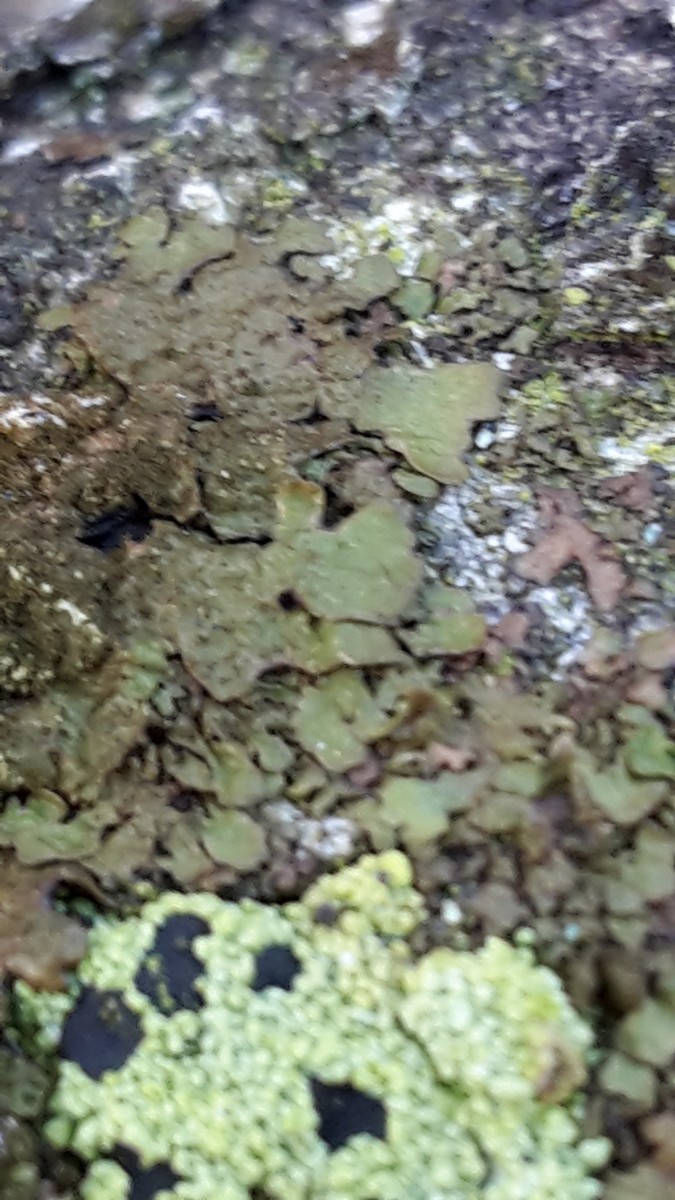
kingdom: Fungi
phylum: Ascomycota
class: Lecanoromycetes
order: Lecanorales
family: Parmeliaceae
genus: Melanelixia
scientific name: Melanelixia subaurifera
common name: guldpudret skållav
